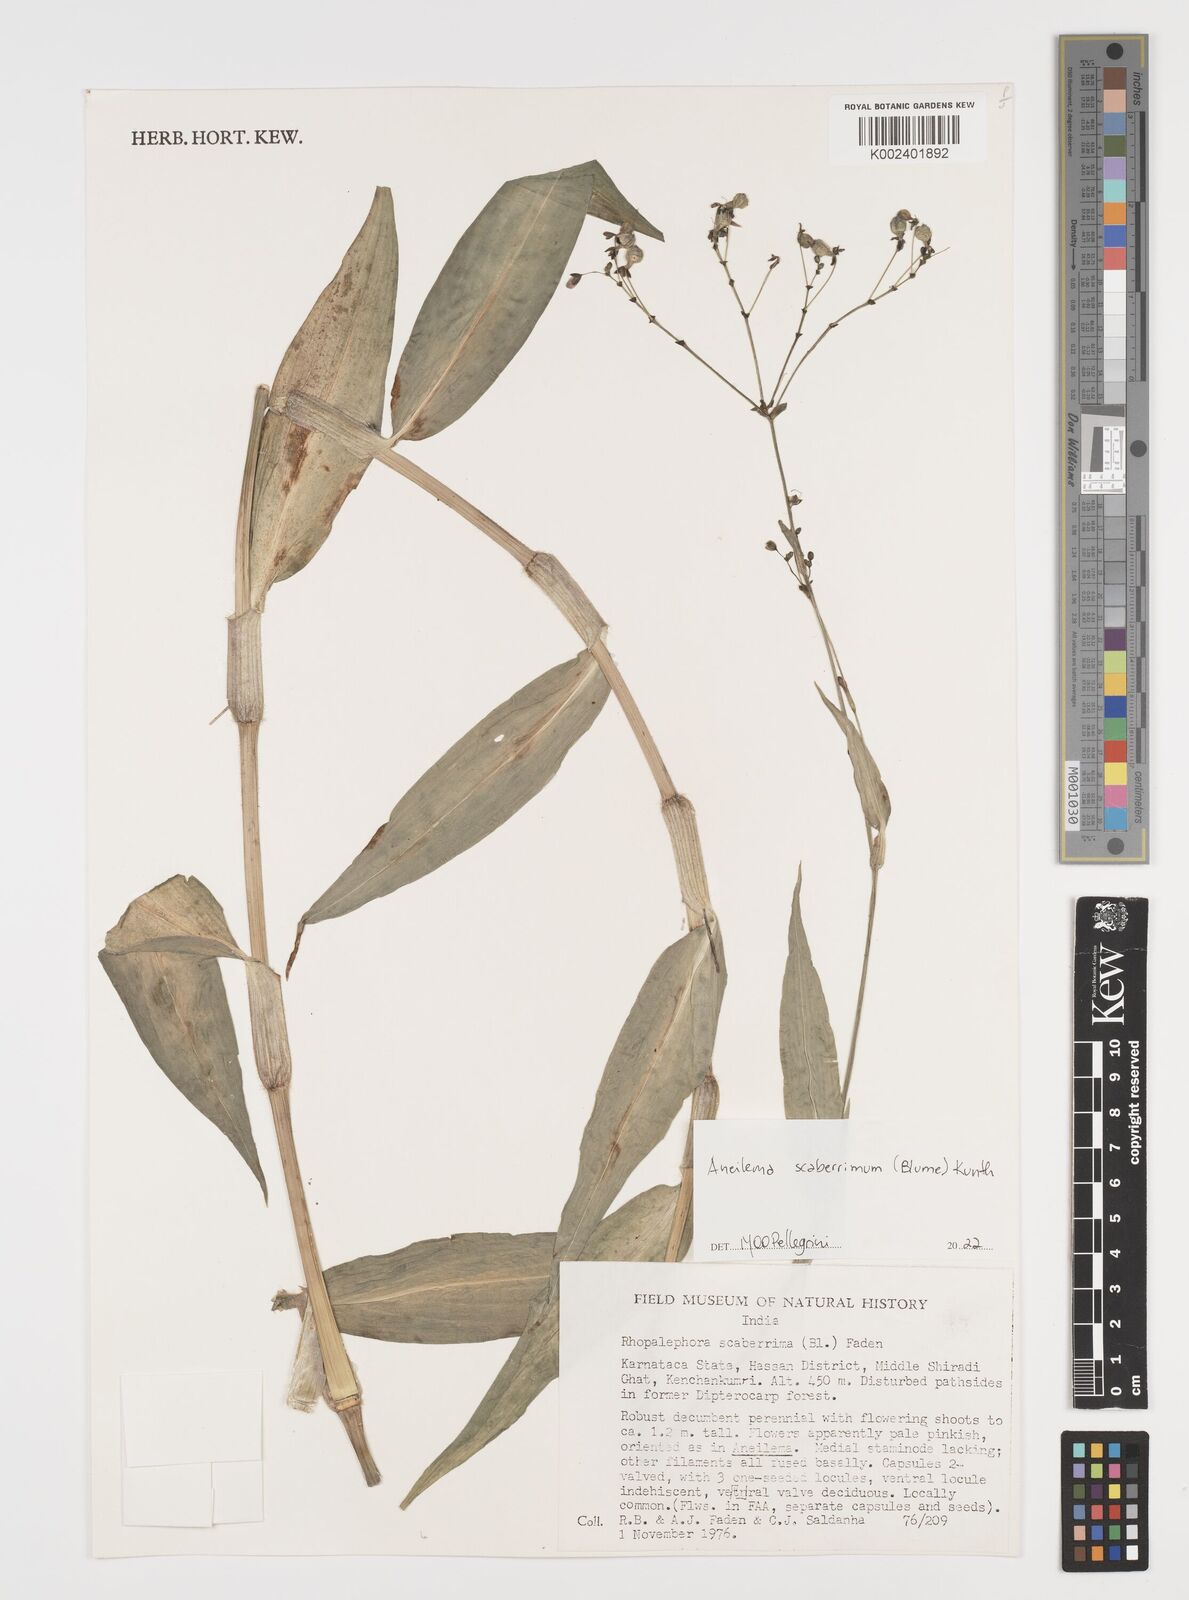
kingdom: Plantae
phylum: Tracheophyta
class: Liliopsida
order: Commelinales
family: Commelinaceae
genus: Rhopalephora
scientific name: Rhopalephora scaberrima
